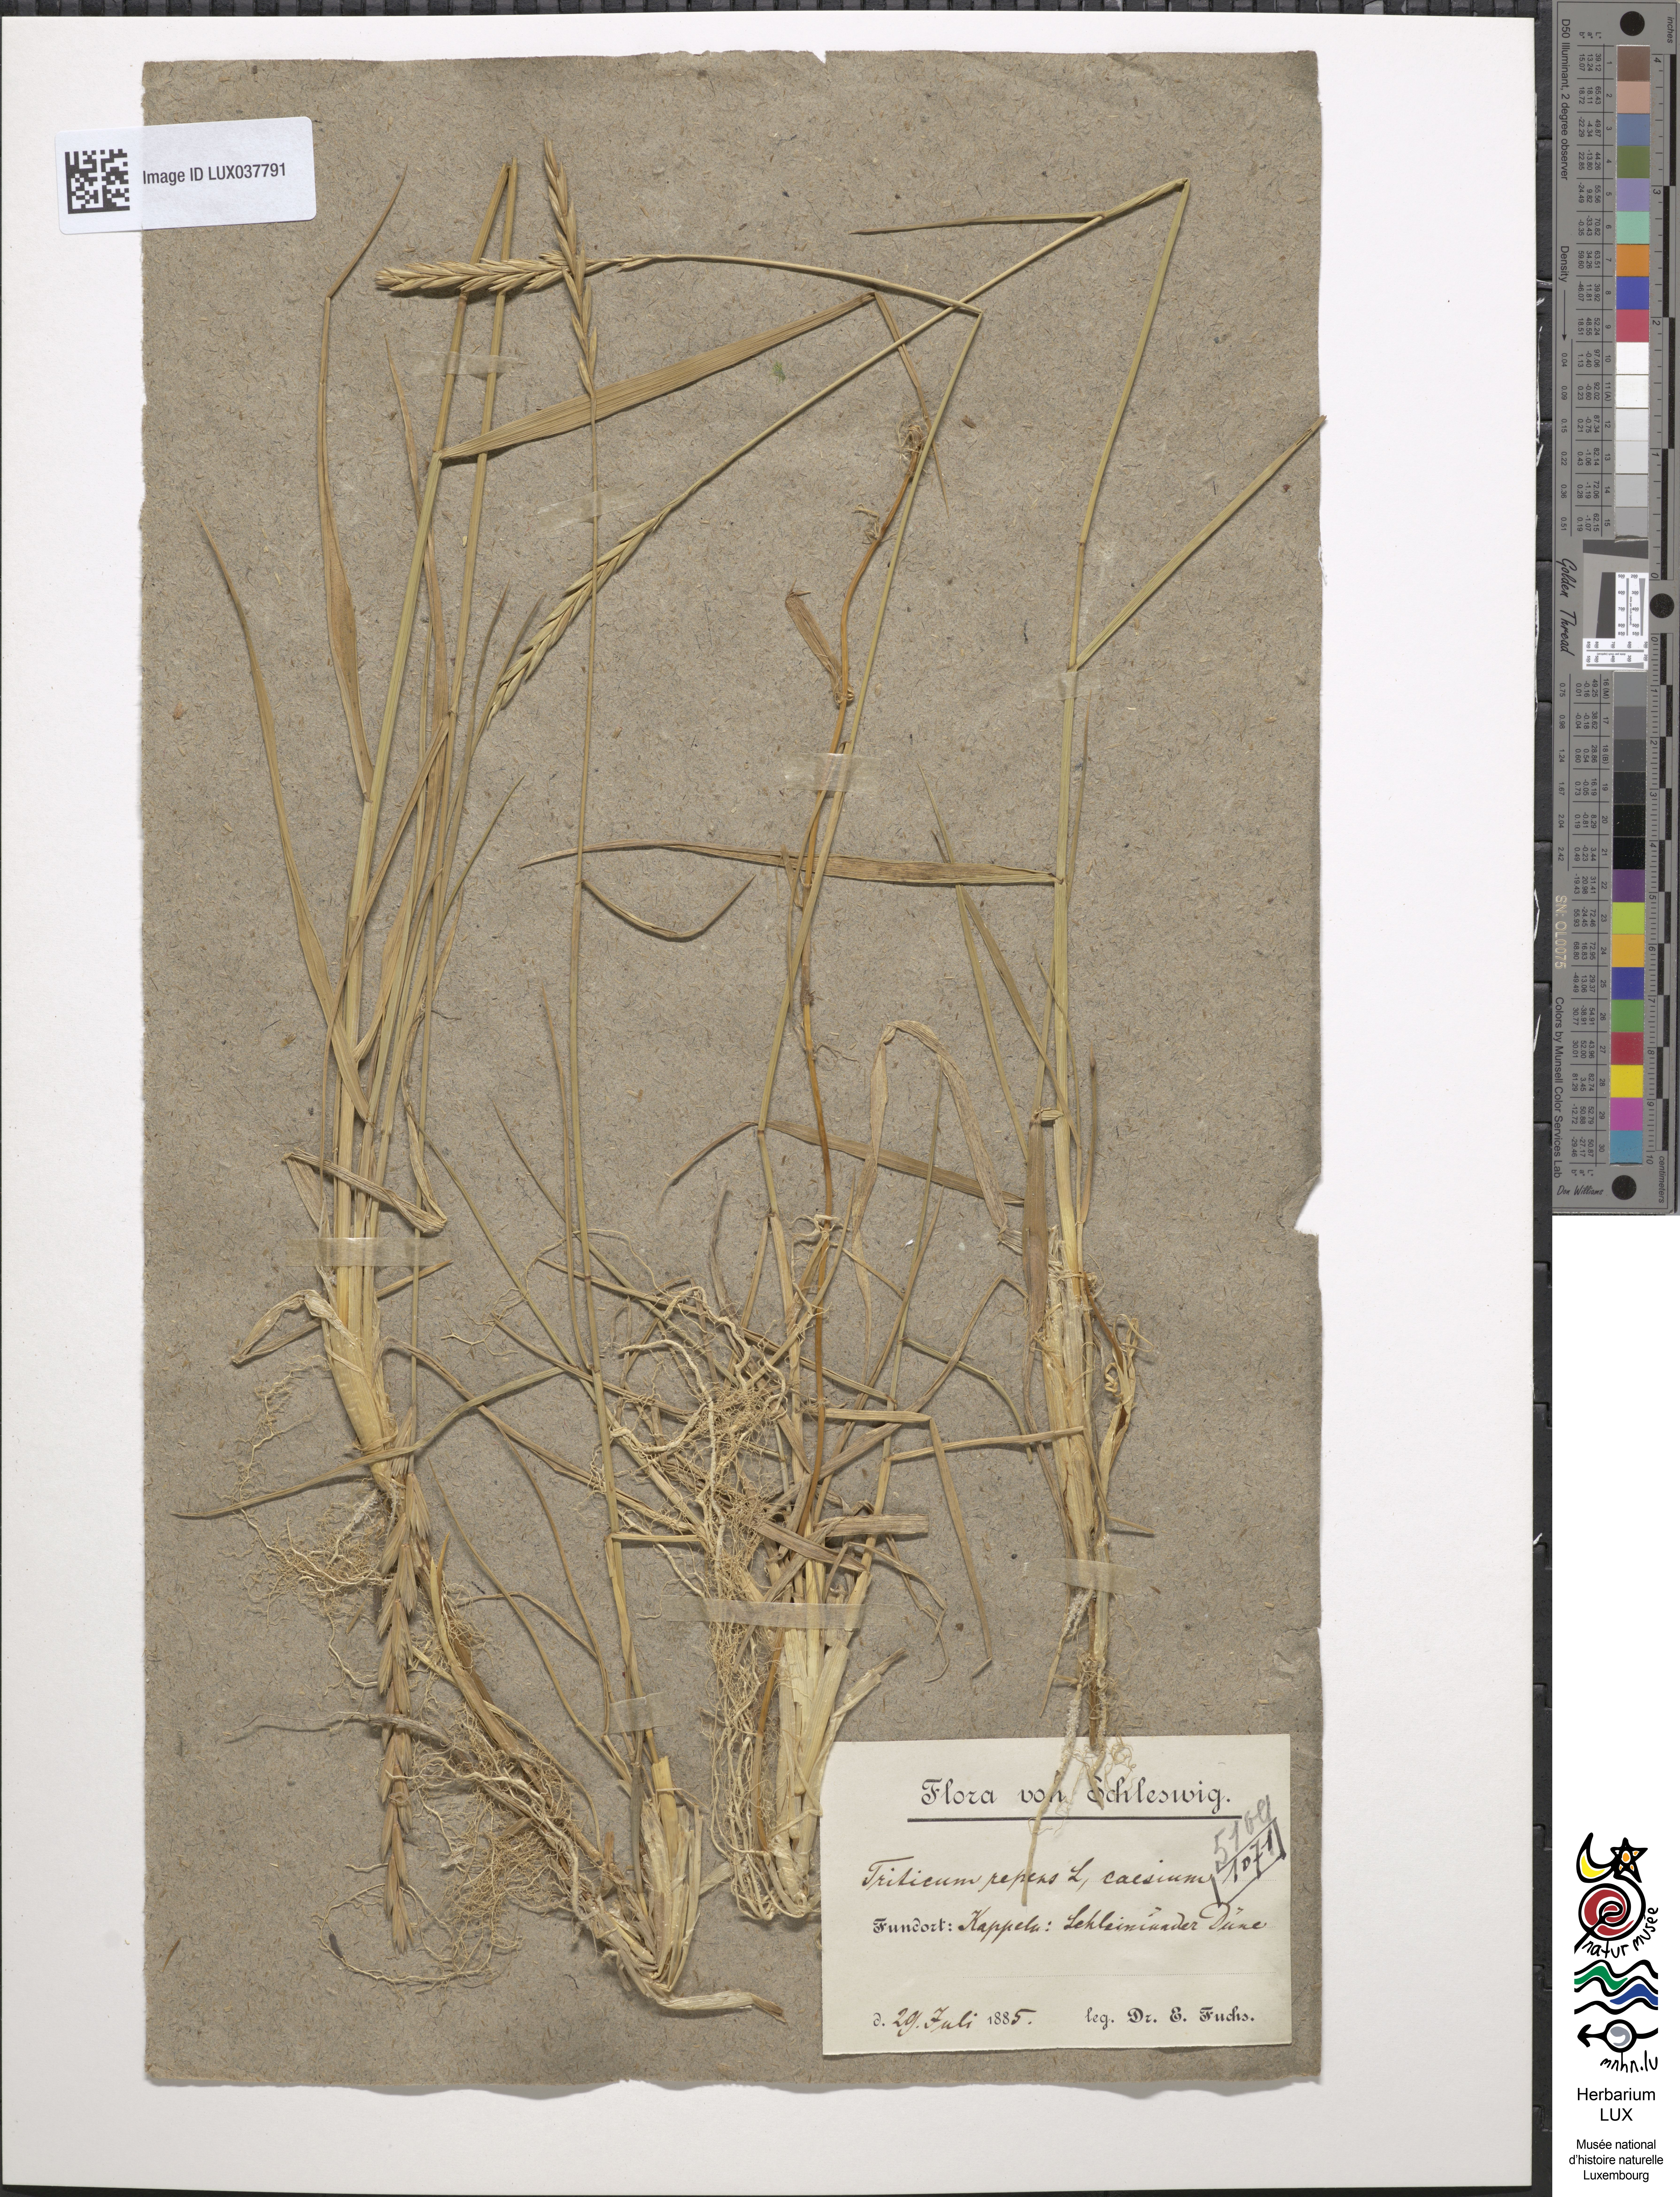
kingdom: Plantae
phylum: Tracheophyta
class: Liliopsida
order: Poales
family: Poaceae
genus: Elymus
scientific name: Elymus repens
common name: Quackgrass
